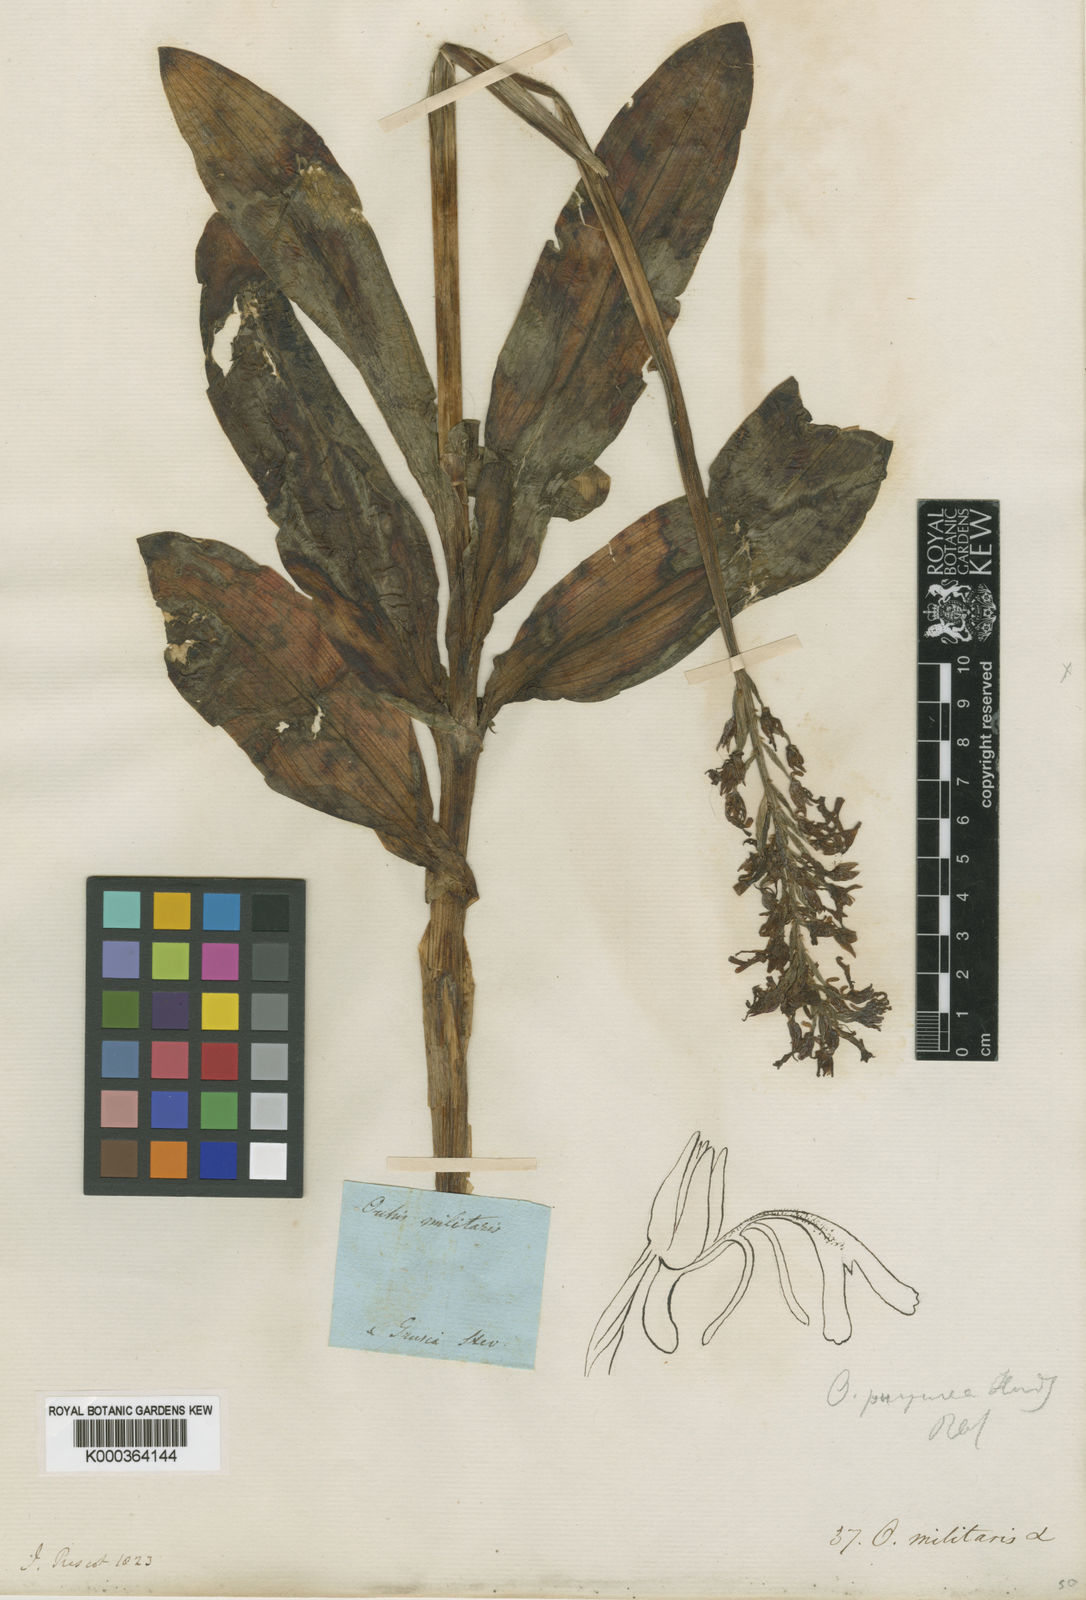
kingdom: Plantae
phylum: Tracheophyta
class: Liliopsida
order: Asparagales
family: Orchidaceae
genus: Orchis
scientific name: Orchis militaris
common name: Military orchid
